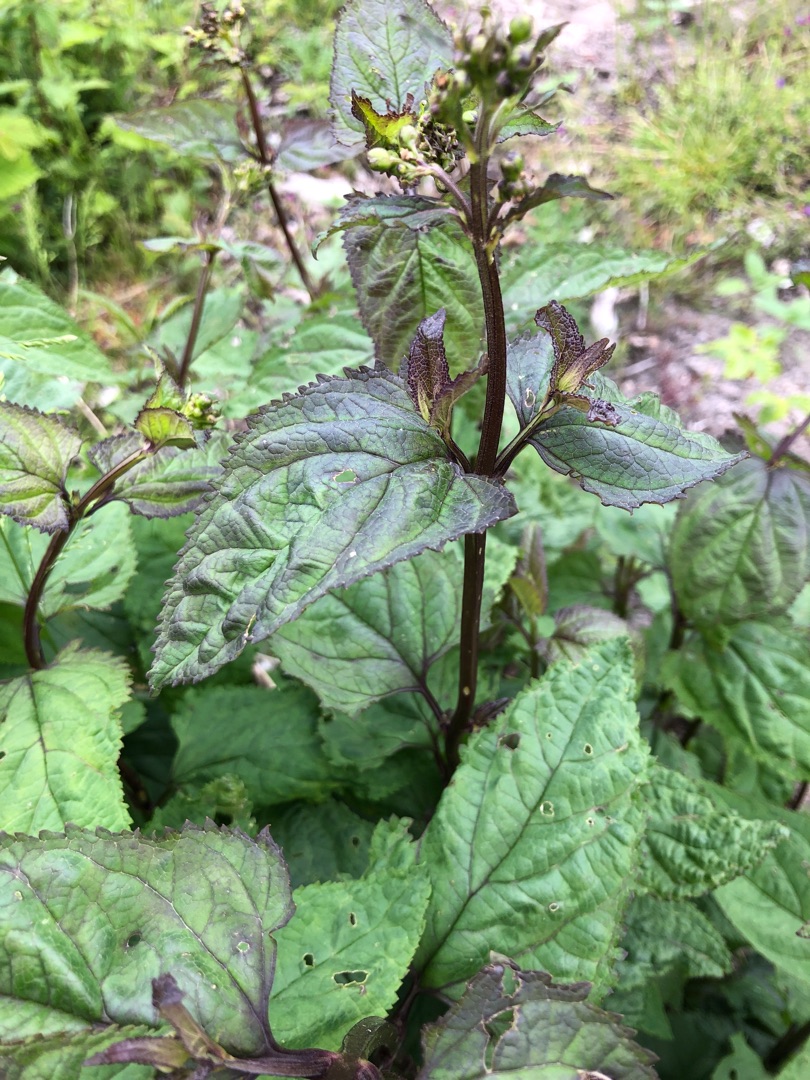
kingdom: Plantae
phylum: Tracheophyta
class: Magnoliopsida
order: Lamiales
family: Scrophulariaceae
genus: Scrophularia
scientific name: Scrophularia nodosa
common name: Knoldet brunrod
